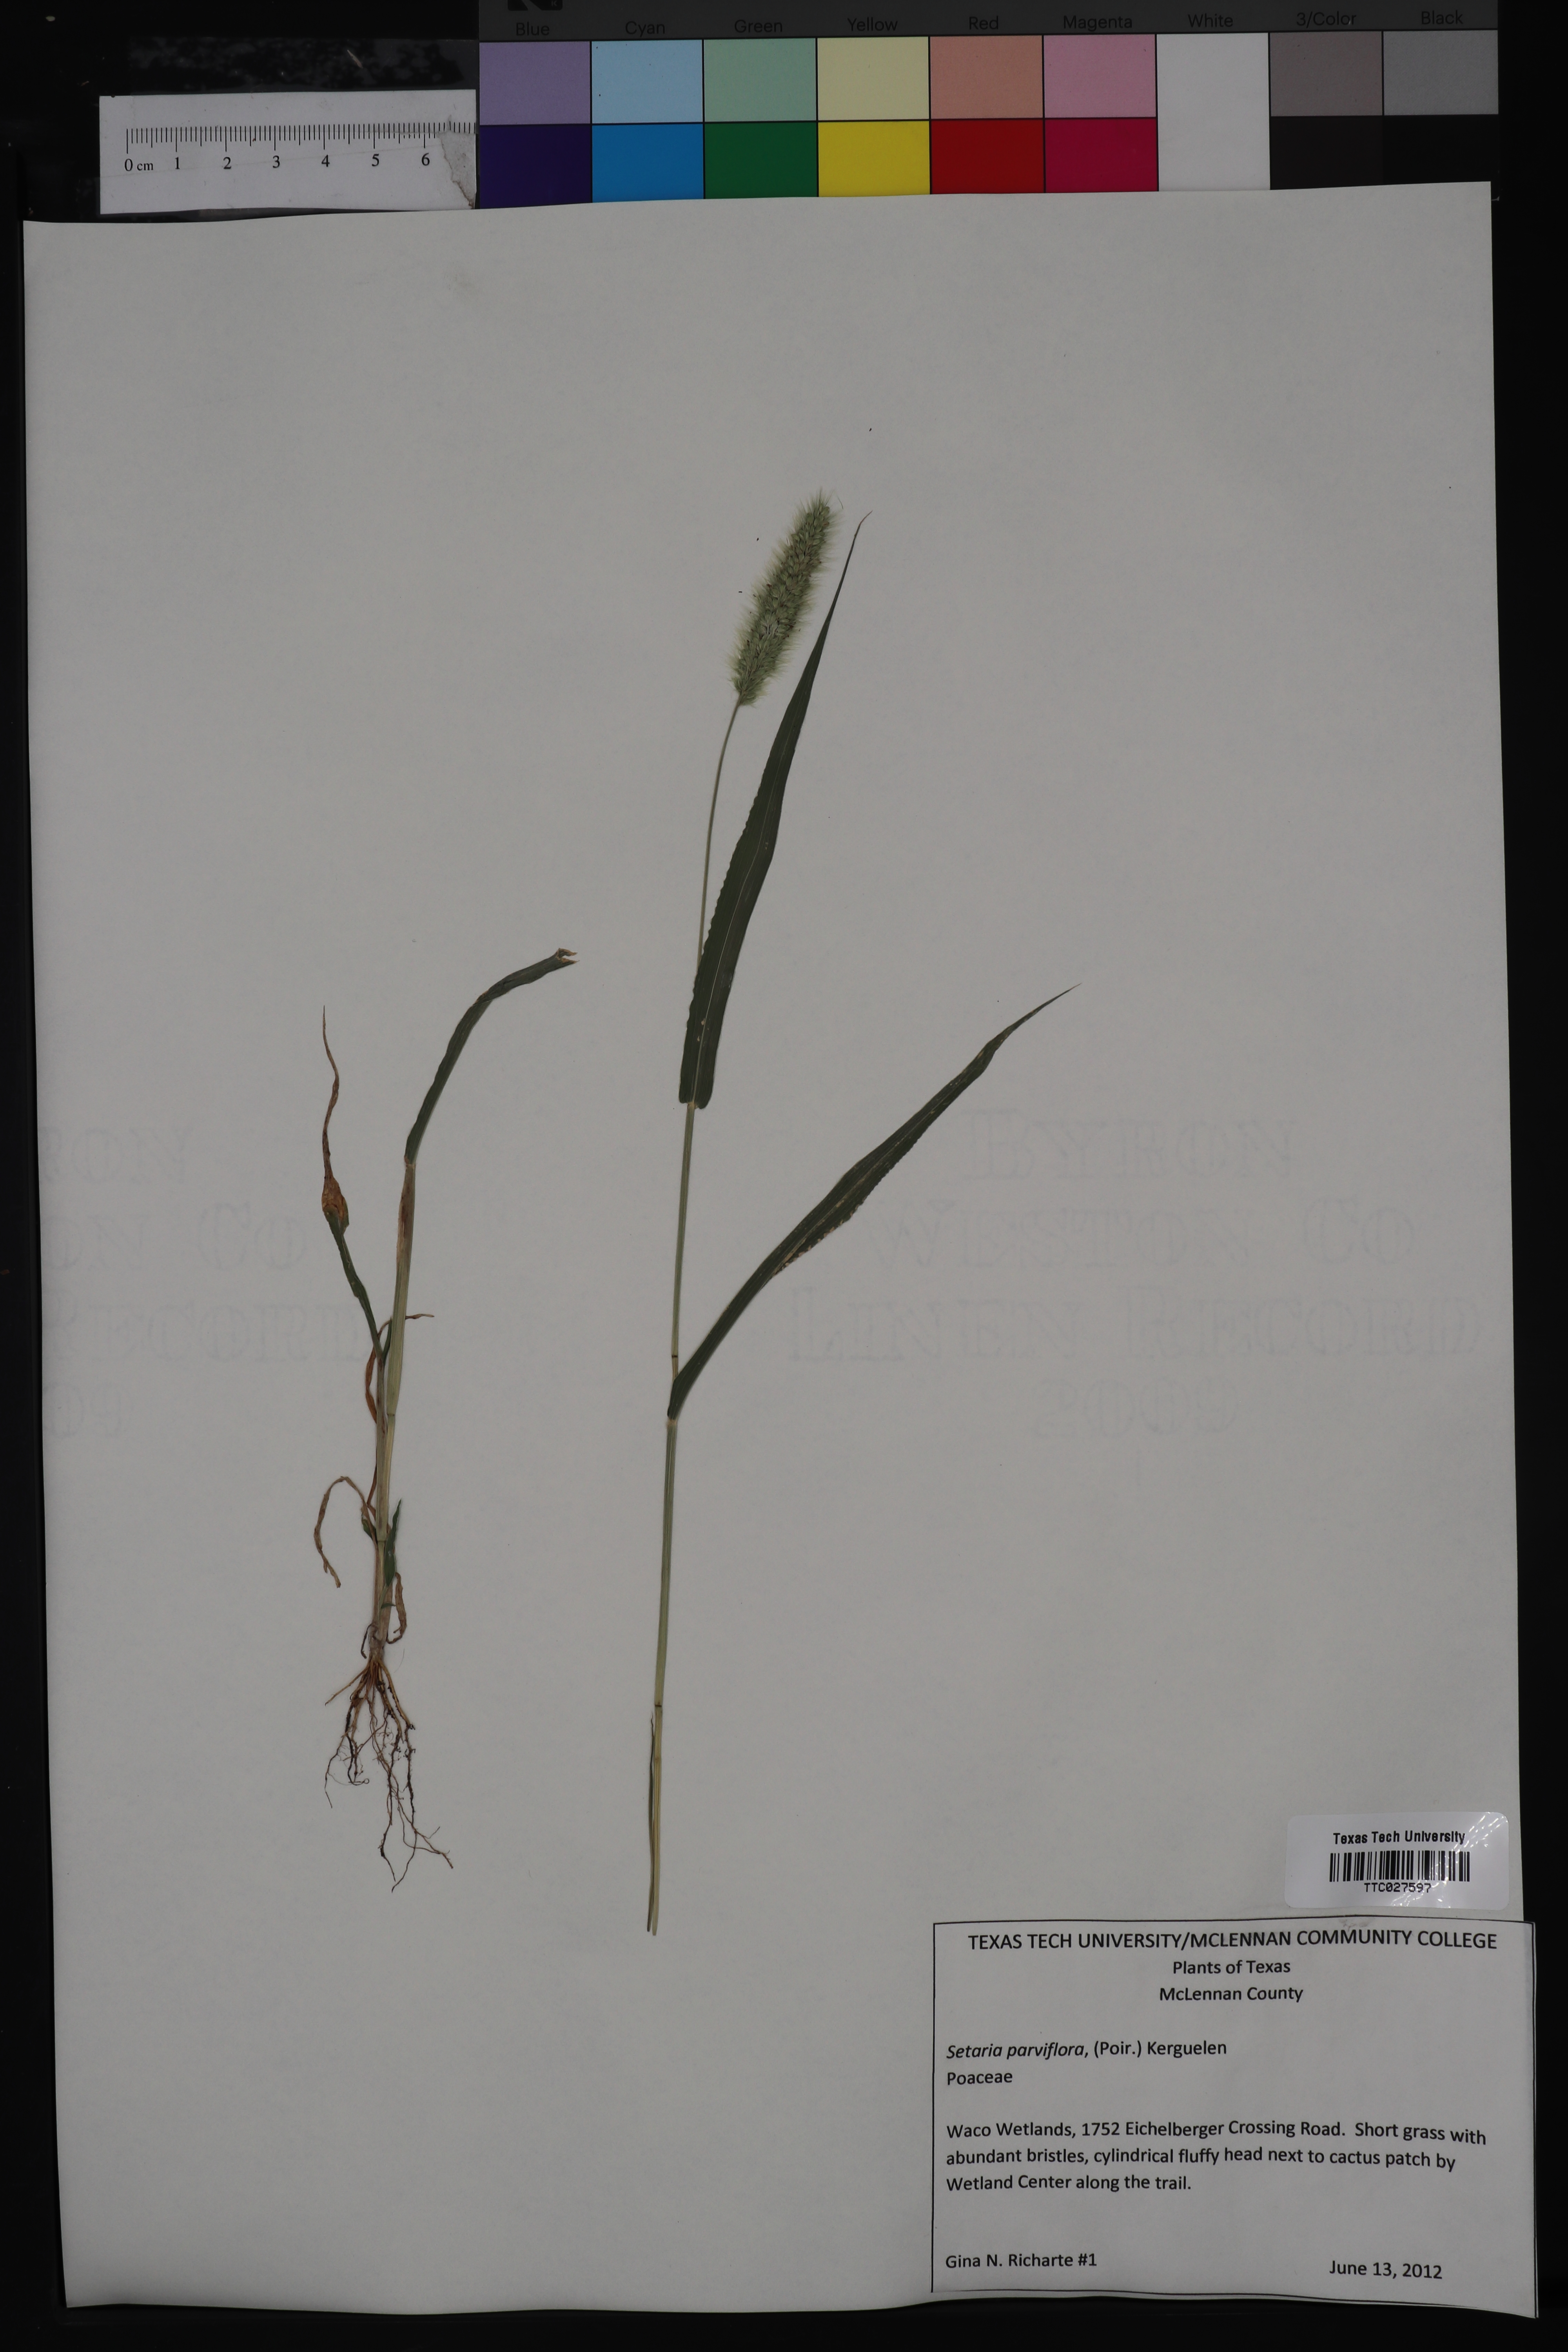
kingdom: Plantae
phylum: Tracheophyta
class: Liliopsida
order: Poales
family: Poaceae
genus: Setaria
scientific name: Setaria parviflora
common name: Knotroot bristle-grass
